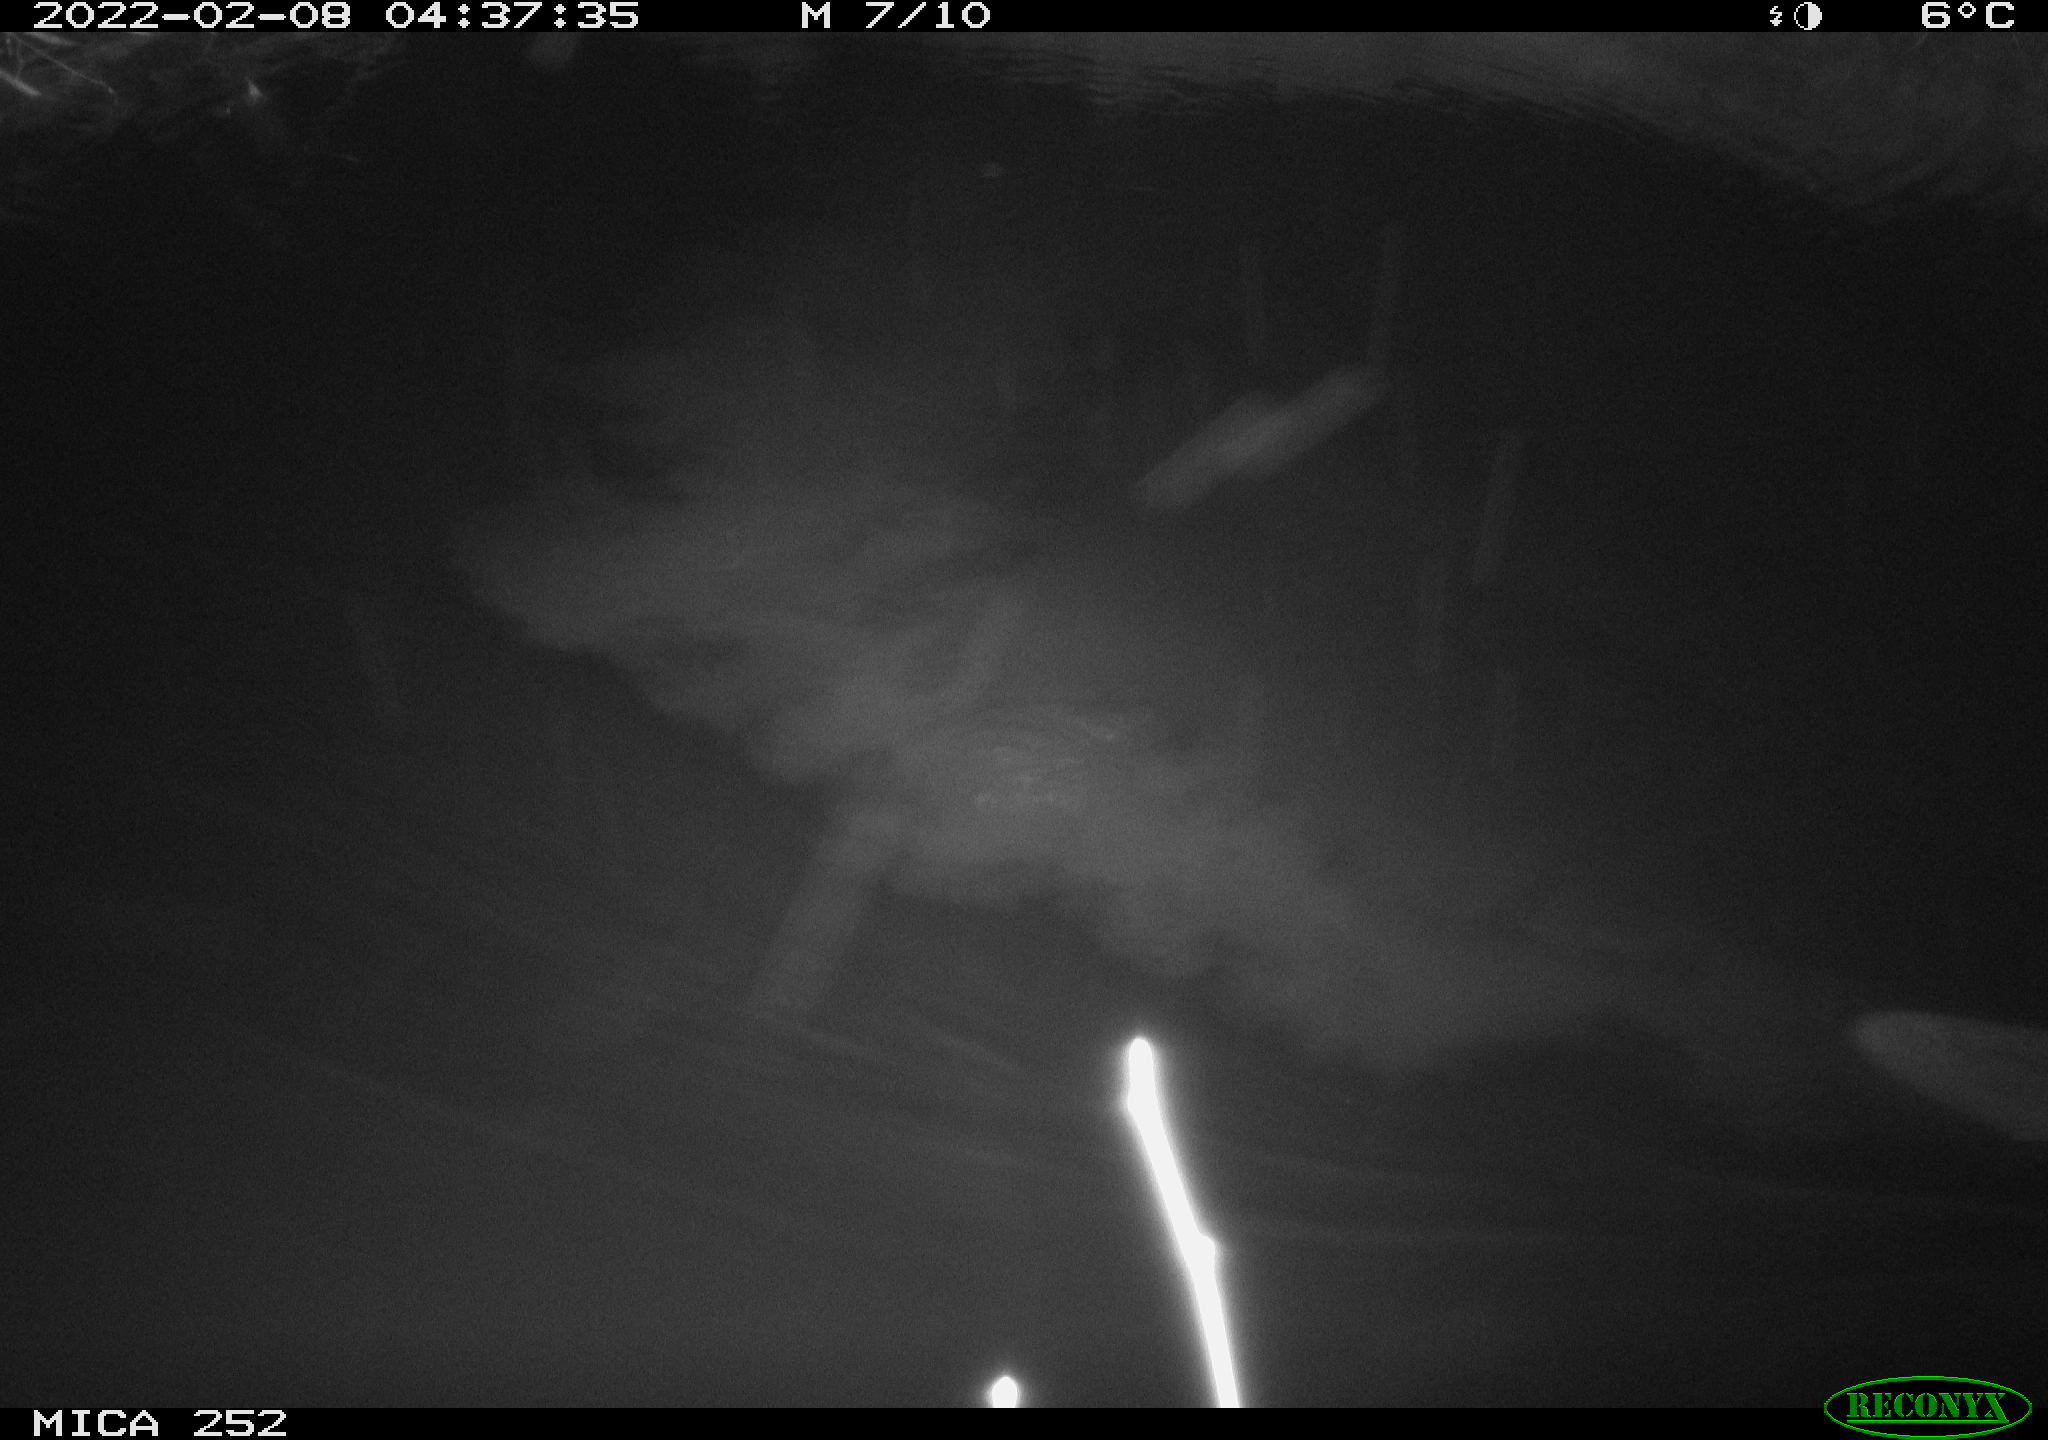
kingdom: Animalia
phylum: Chordata
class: Mammalia
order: Rodentia
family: Castoridae
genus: Castor
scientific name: Castor fiber
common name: Eurasian beaver
